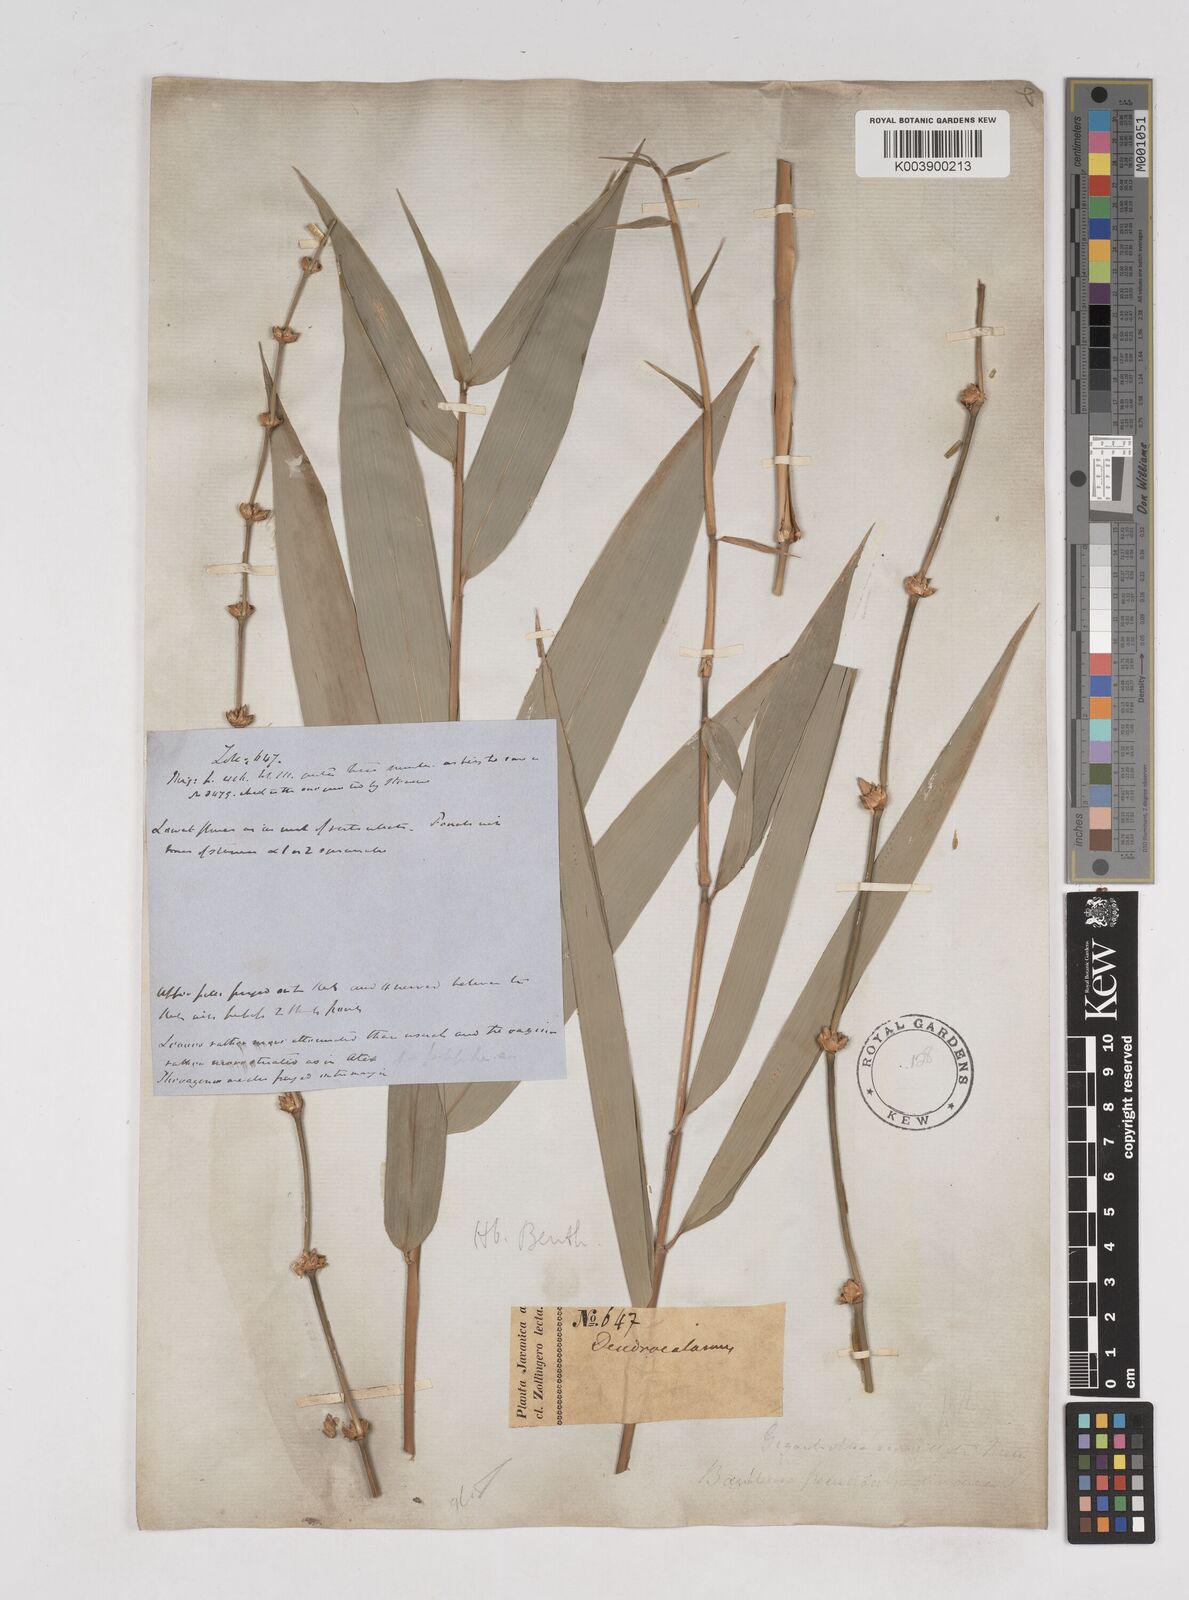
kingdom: Plantae
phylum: Tracheophyta
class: Liliopsida
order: Poales
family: Poaceae
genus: Gigantochloa
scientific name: Gigantochloa atter
